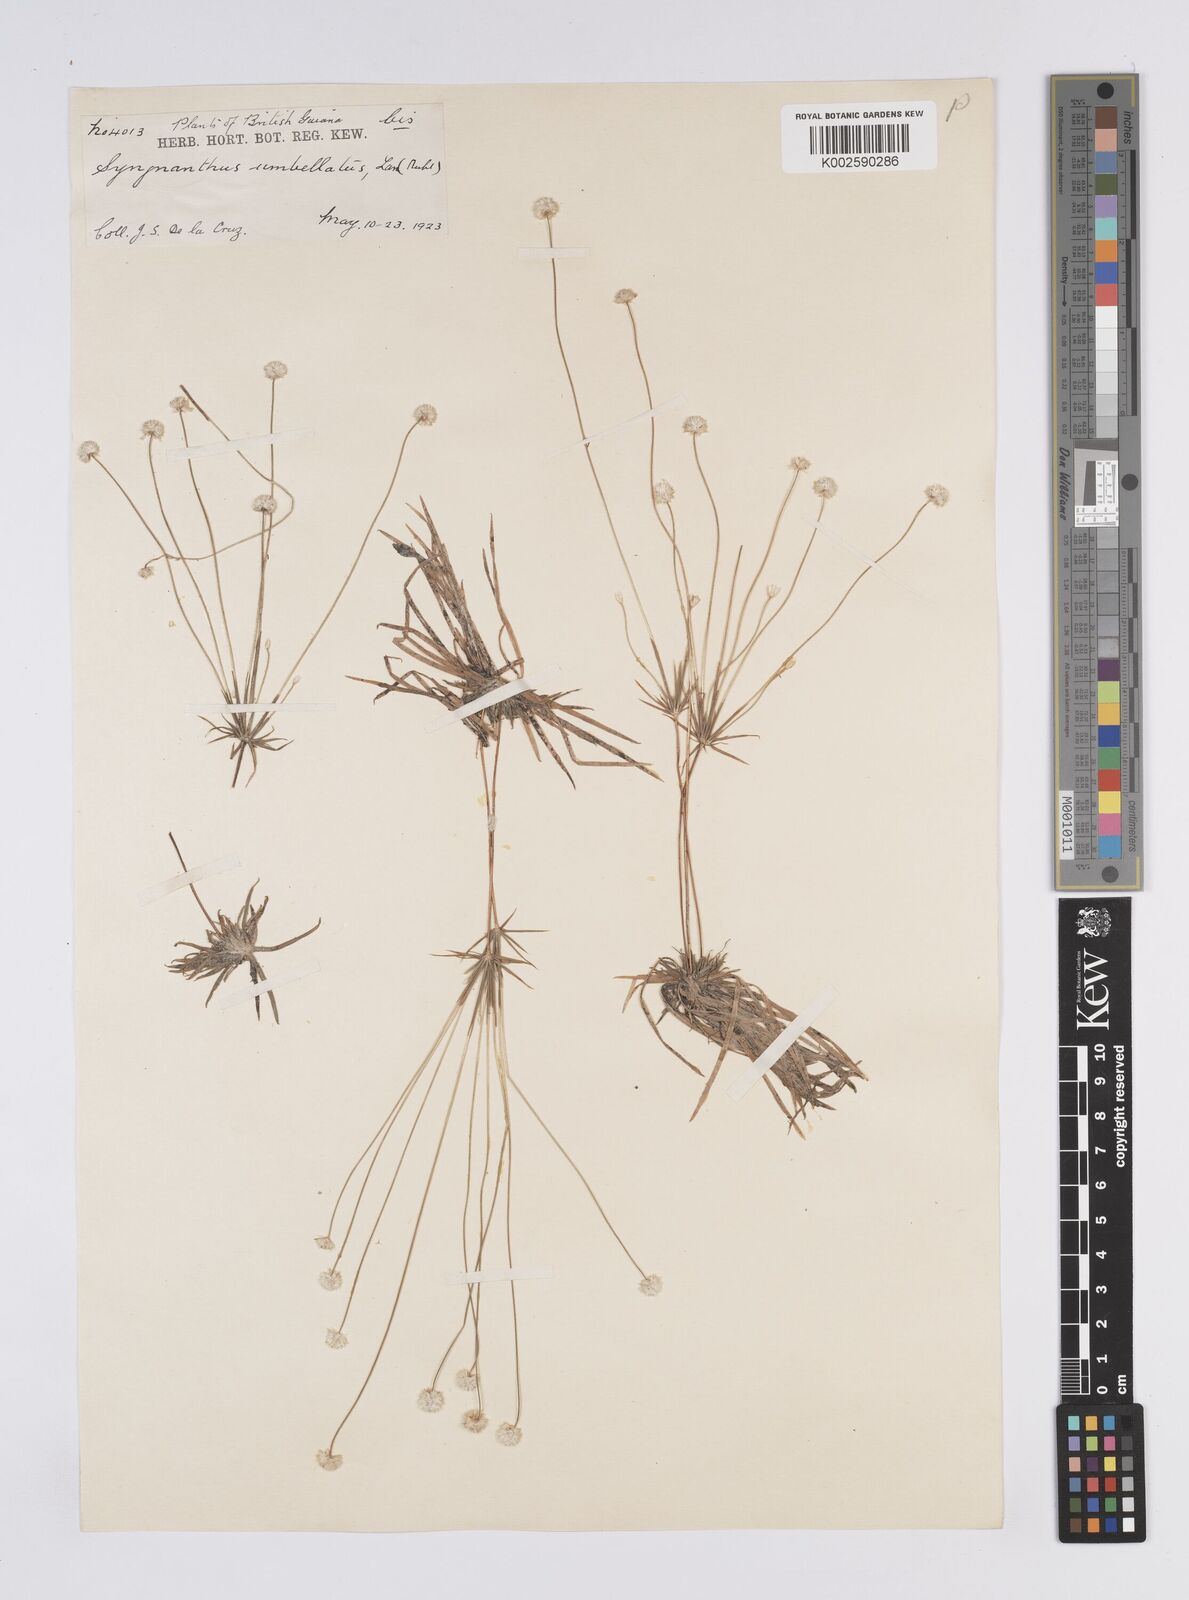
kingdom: Plantae
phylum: Tracheophyta
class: Liliopsida
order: Poales
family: Eriocaulaceae
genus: Syngonanthus
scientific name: Syngonanthus umbellatus
